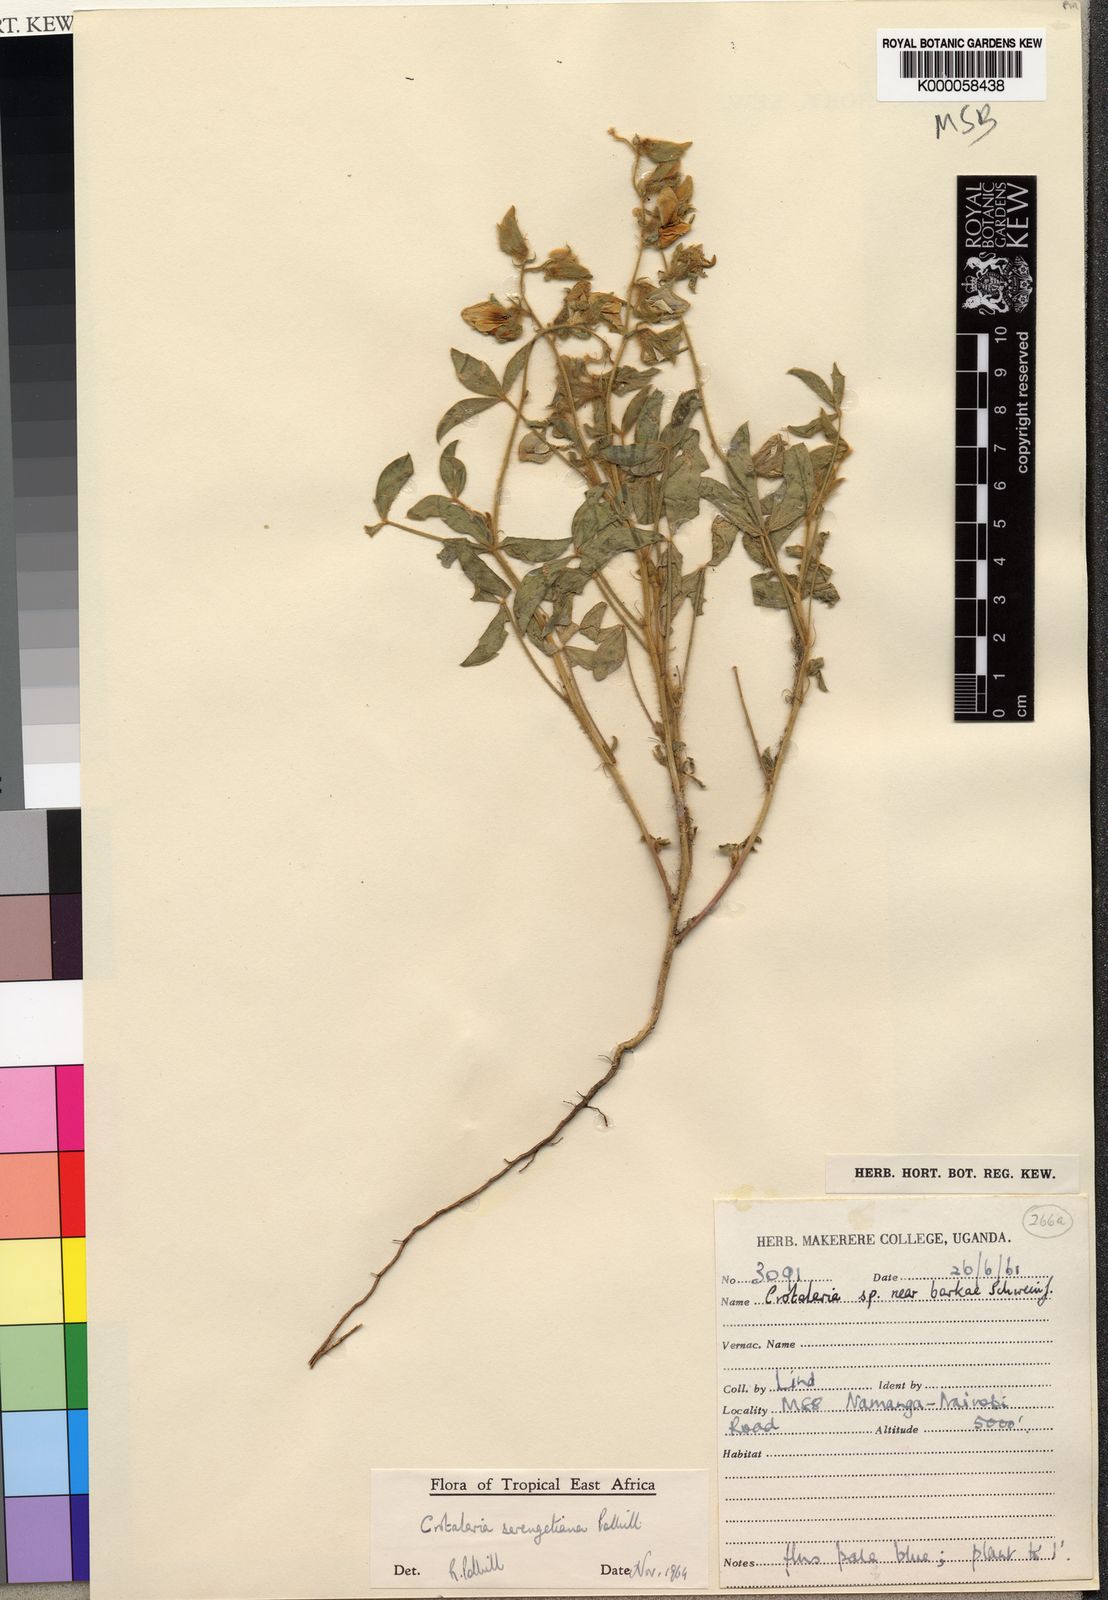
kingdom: Plantae
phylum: Tracheophyta
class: Magnoliopsida
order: Fabales
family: Fabaceae
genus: Crotalaria
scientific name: Crotalaria serengetiana
